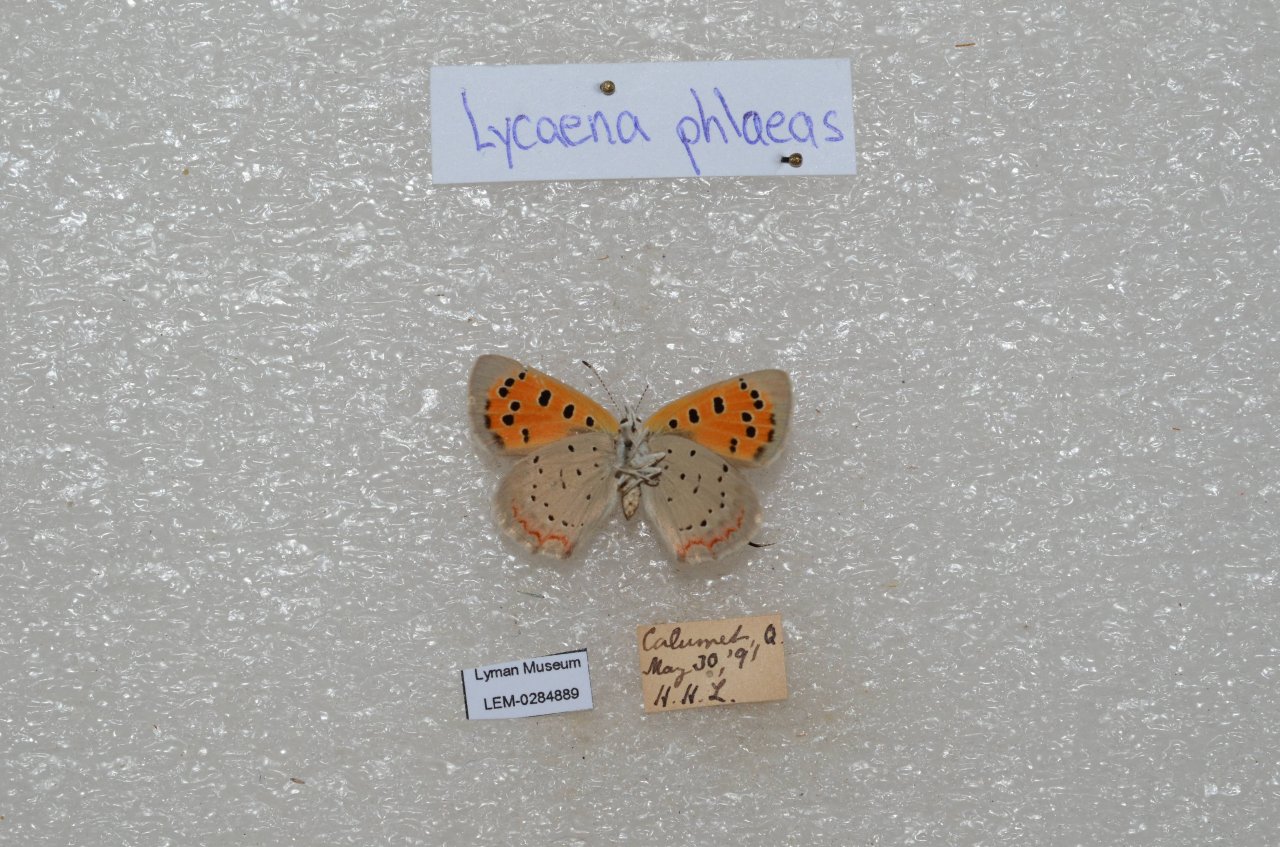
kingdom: Animalia
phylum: Arthropoda
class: Insecta
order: Lepidoptera
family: Lycaenidae
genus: Lycaena
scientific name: Lycaena phlaeas
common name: American Copper
